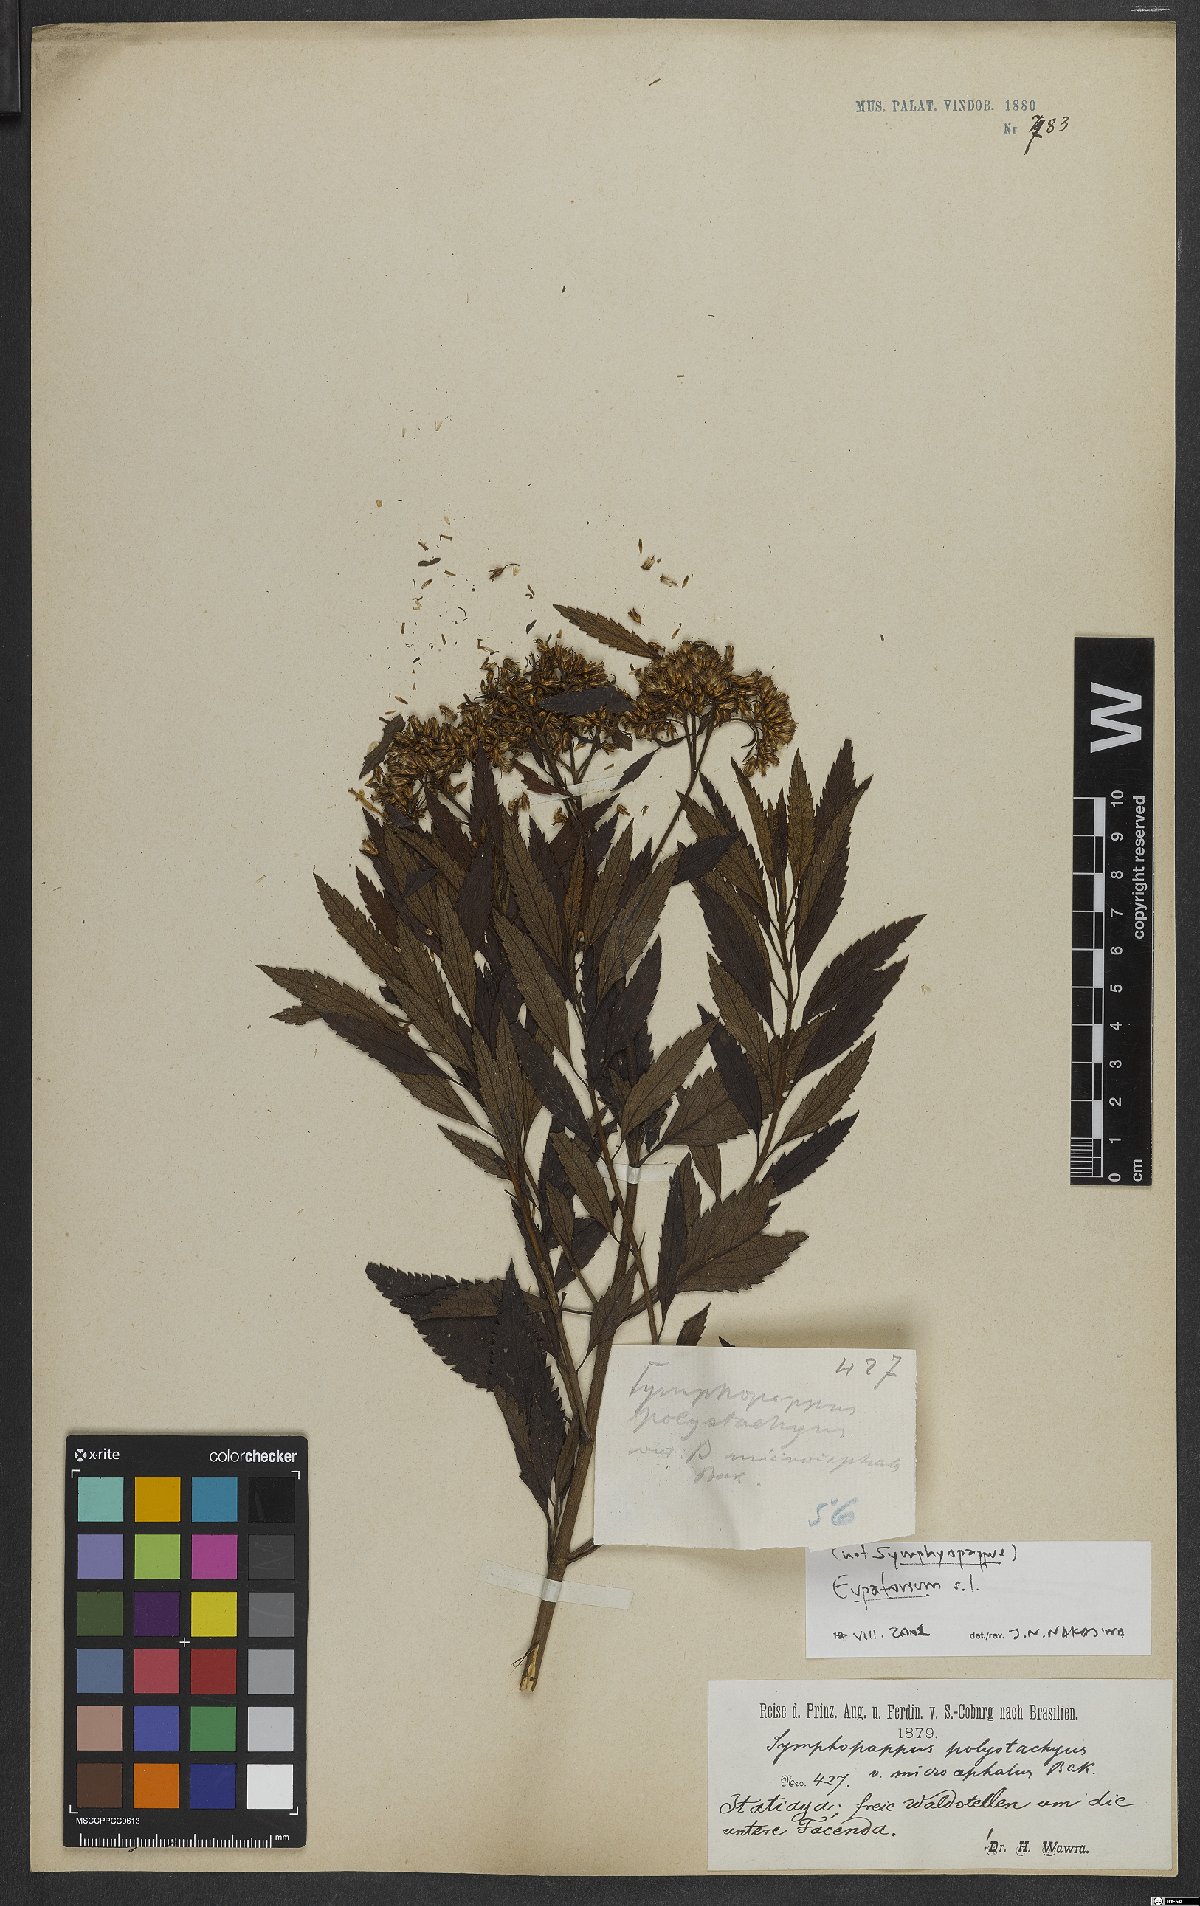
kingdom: Plantae
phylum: Tracheophyta
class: Magnoliopsida
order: Asterales
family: Asteraceae
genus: Eupatorium
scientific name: Eupatorium
